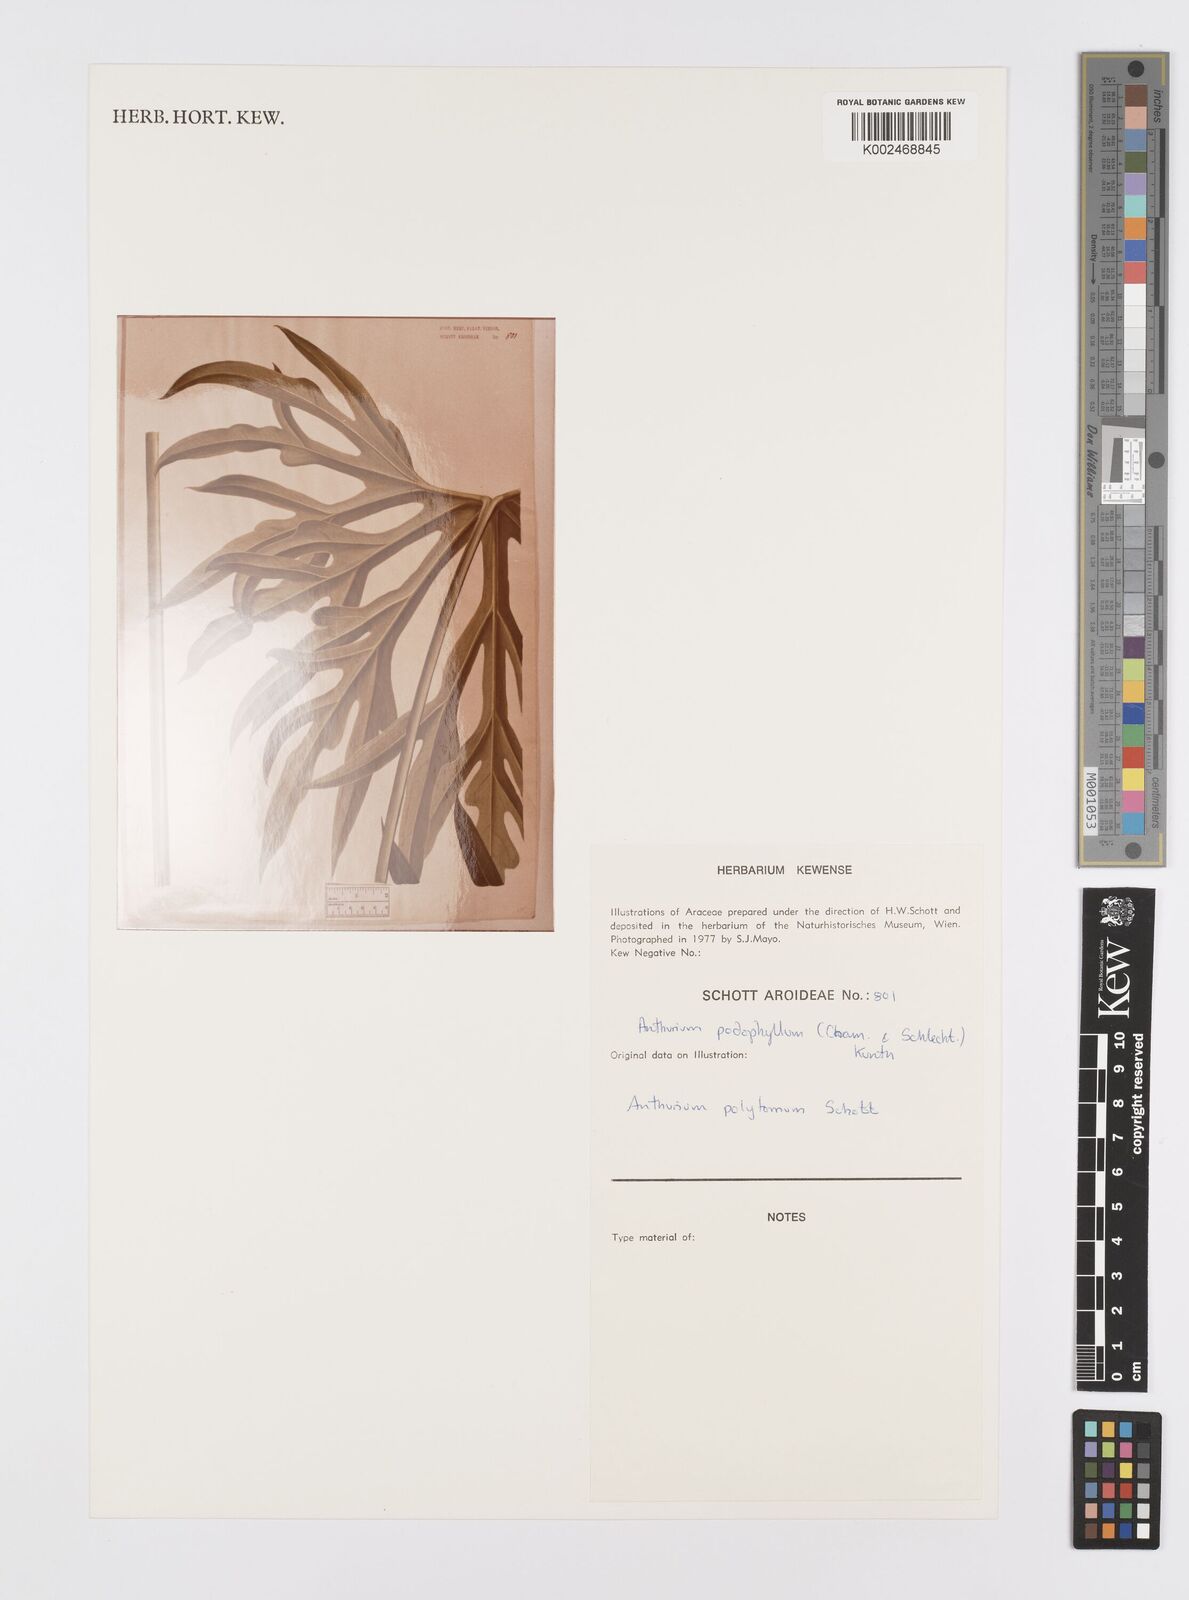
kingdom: Plantae
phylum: Tracheophyta
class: Liliopsida
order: Alismatales
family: Araceae
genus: Anthurium
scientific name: Anthurium podophyllum
